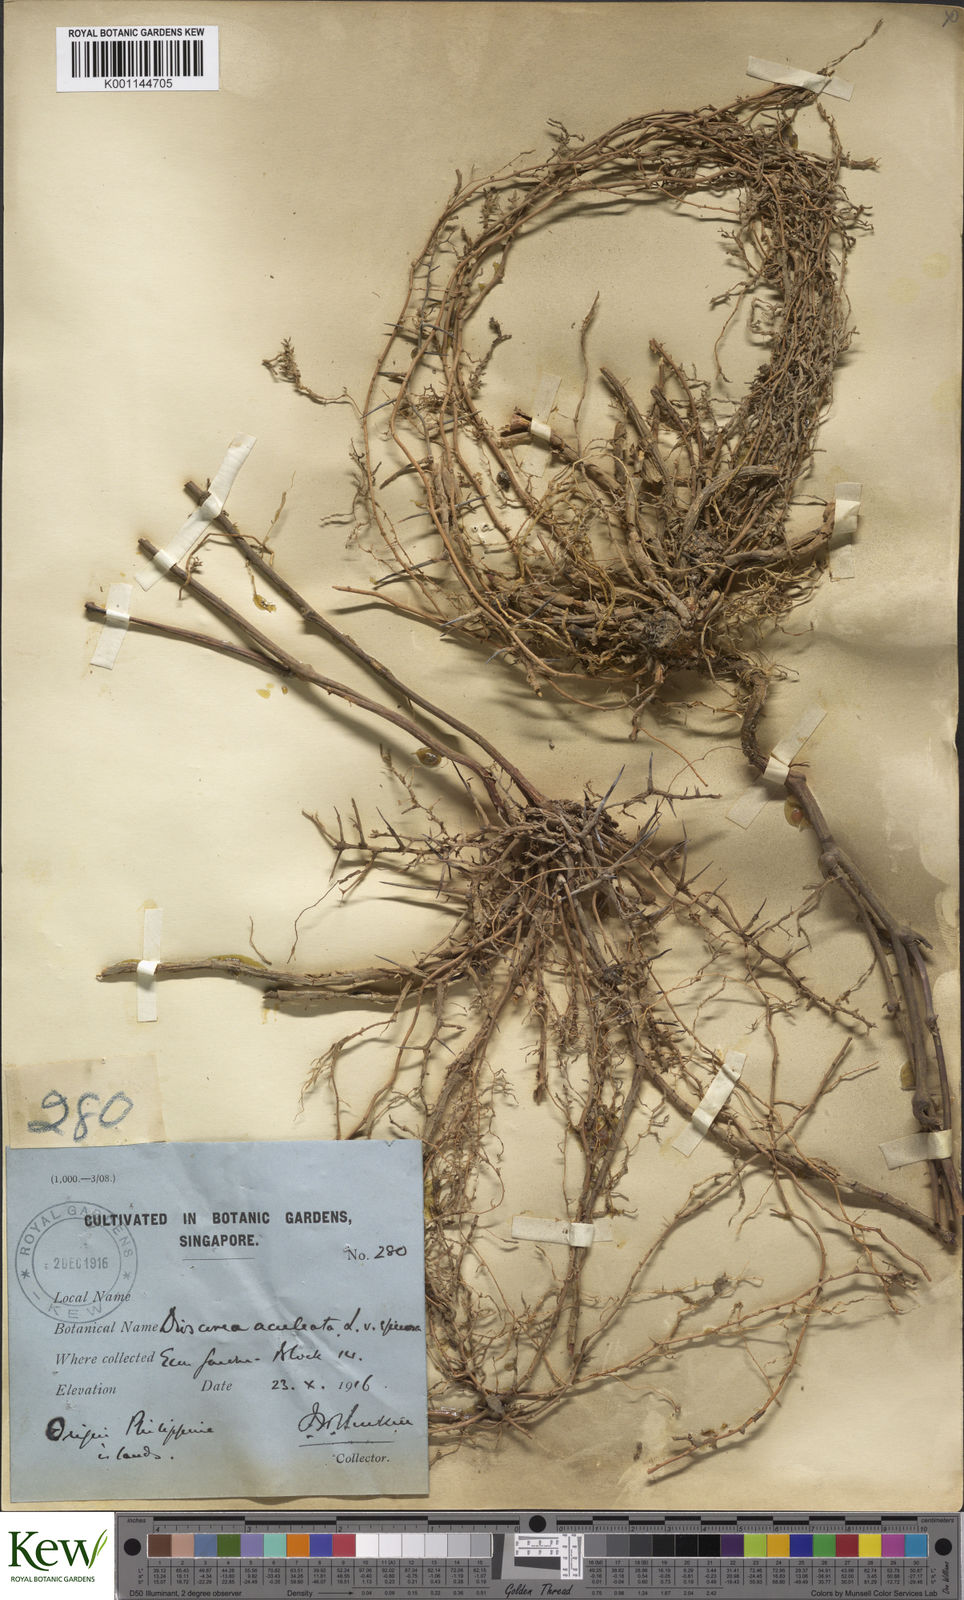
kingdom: Plantae
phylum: Tracheophyta
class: Liliopsida
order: Dioscoreales
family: Dioscoreaceae
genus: Dioscorea
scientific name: Dioscorea esculenta
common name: Chinese yam
